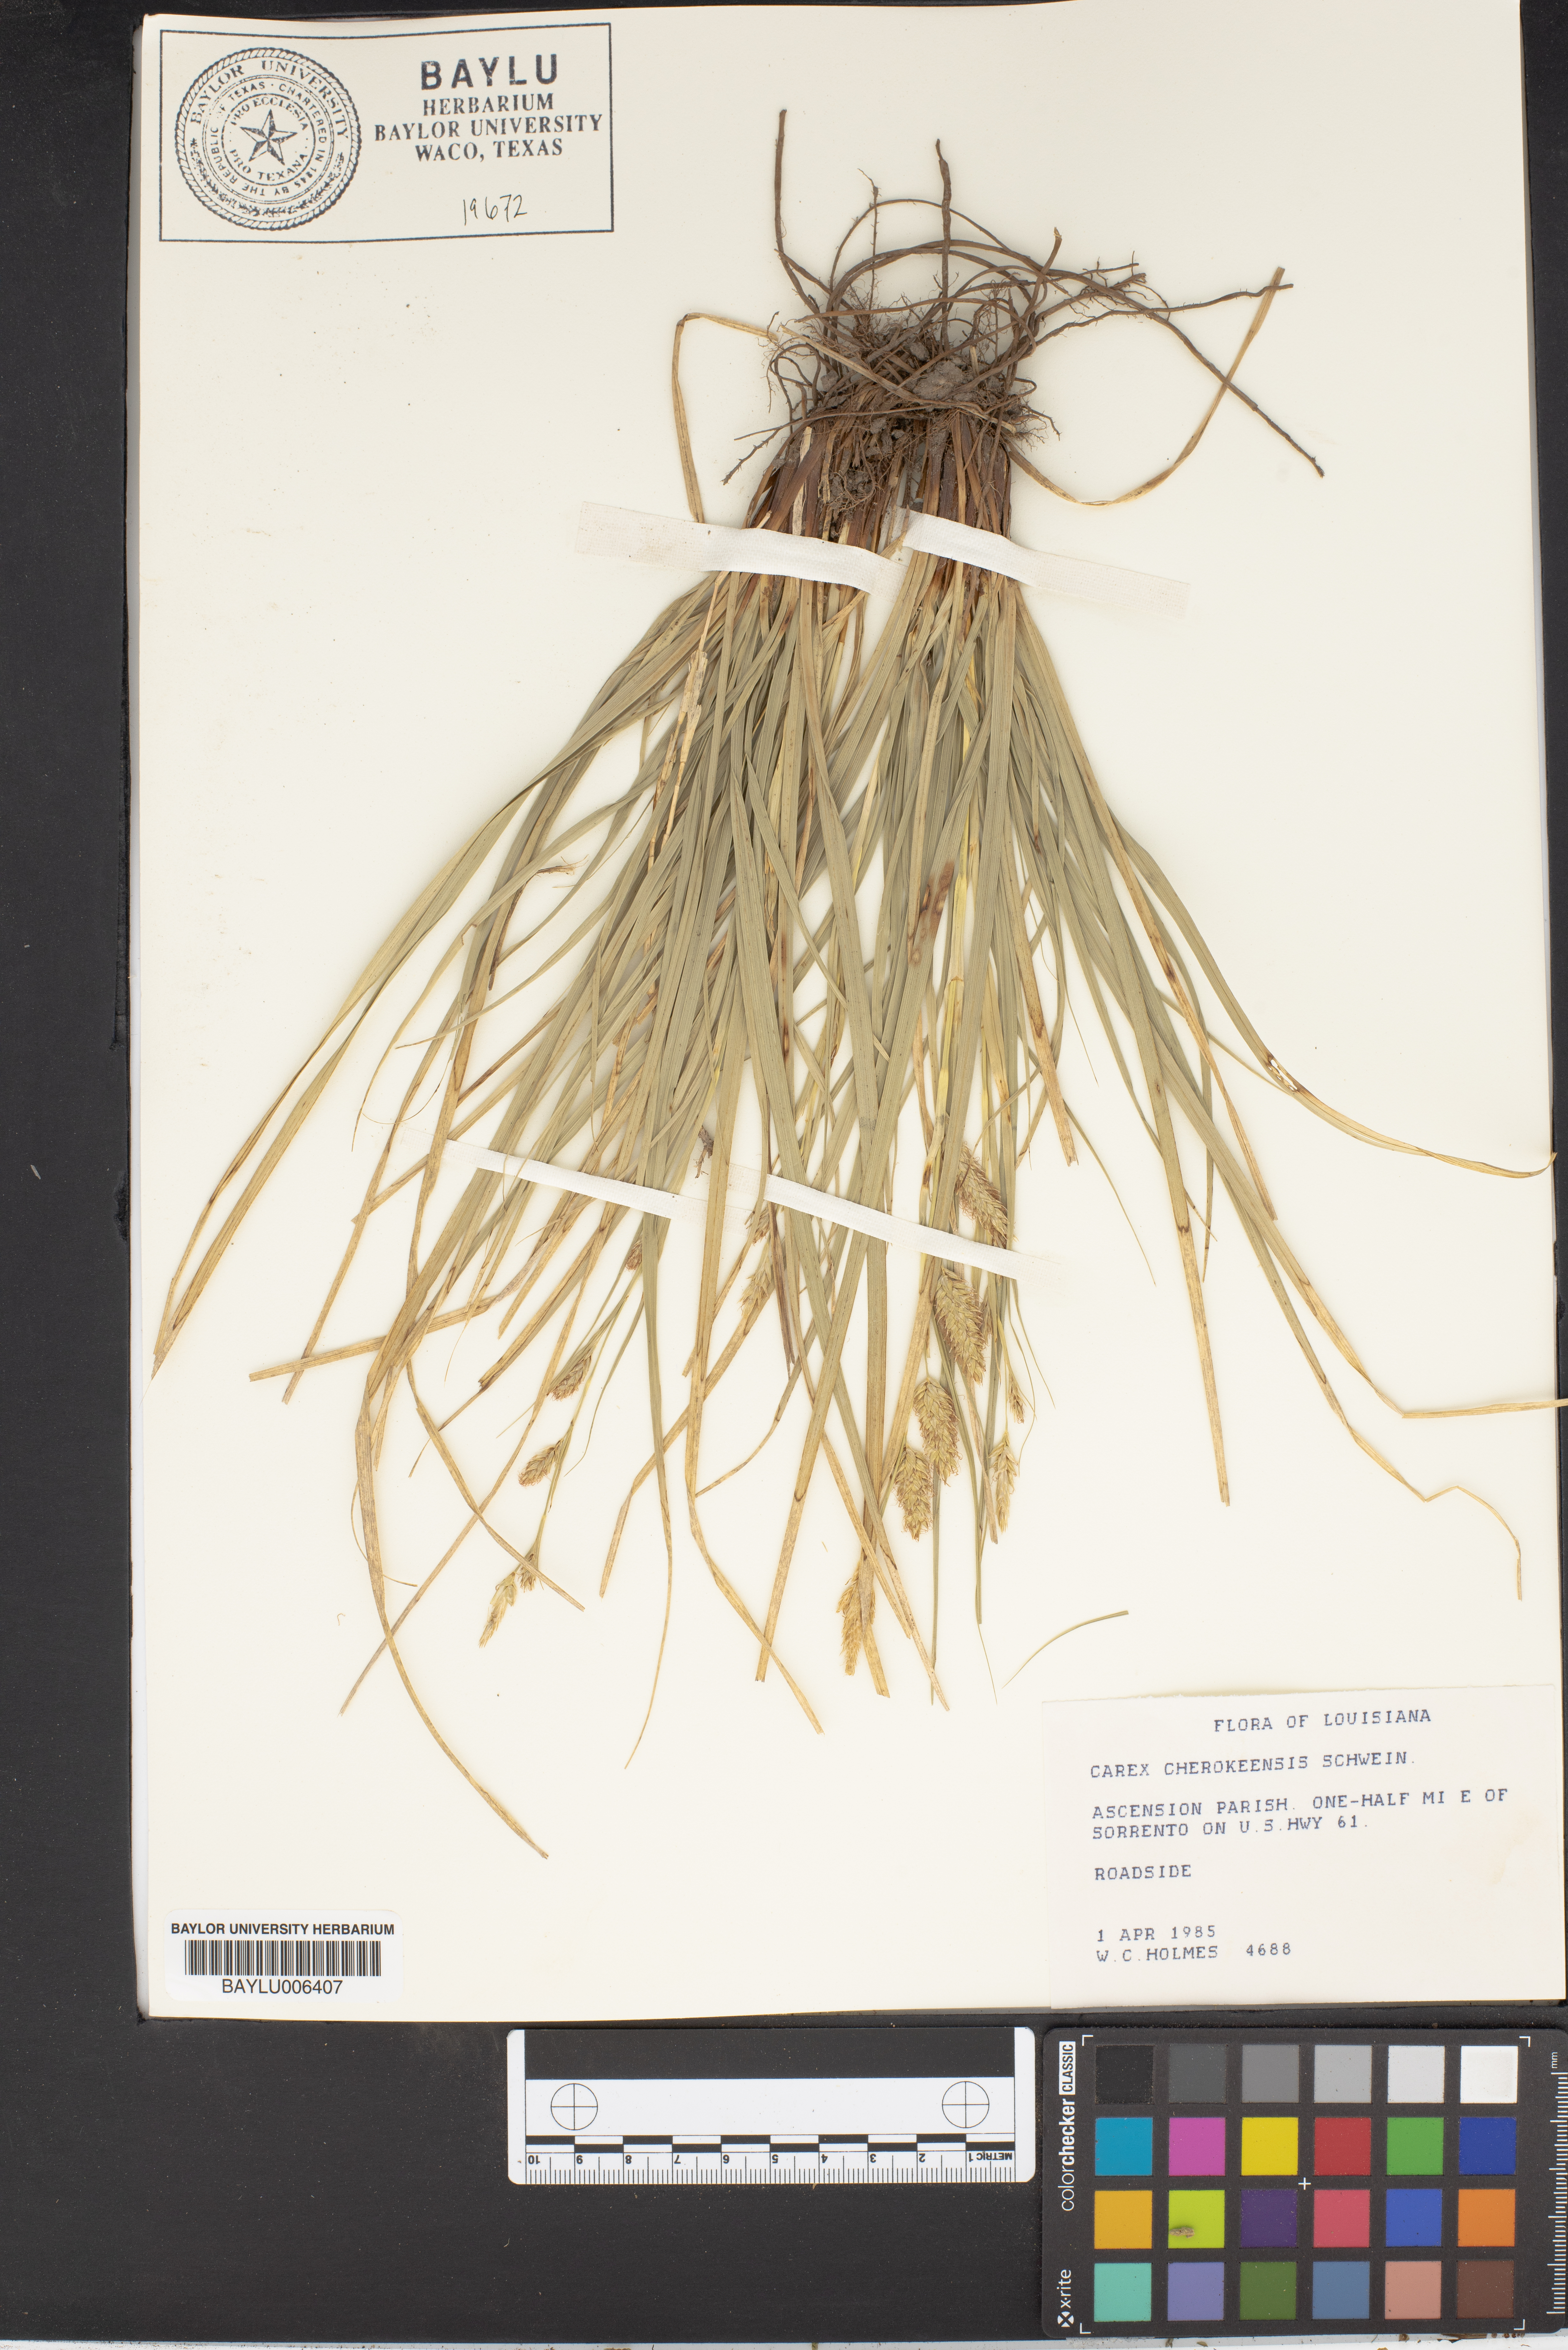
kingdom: Plantae
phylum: Tracheophyta
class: Liliopsida
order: Poales
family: Cyperaceae
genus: Carex
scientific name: Carex cherokeensis
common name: Cherokee sedge
